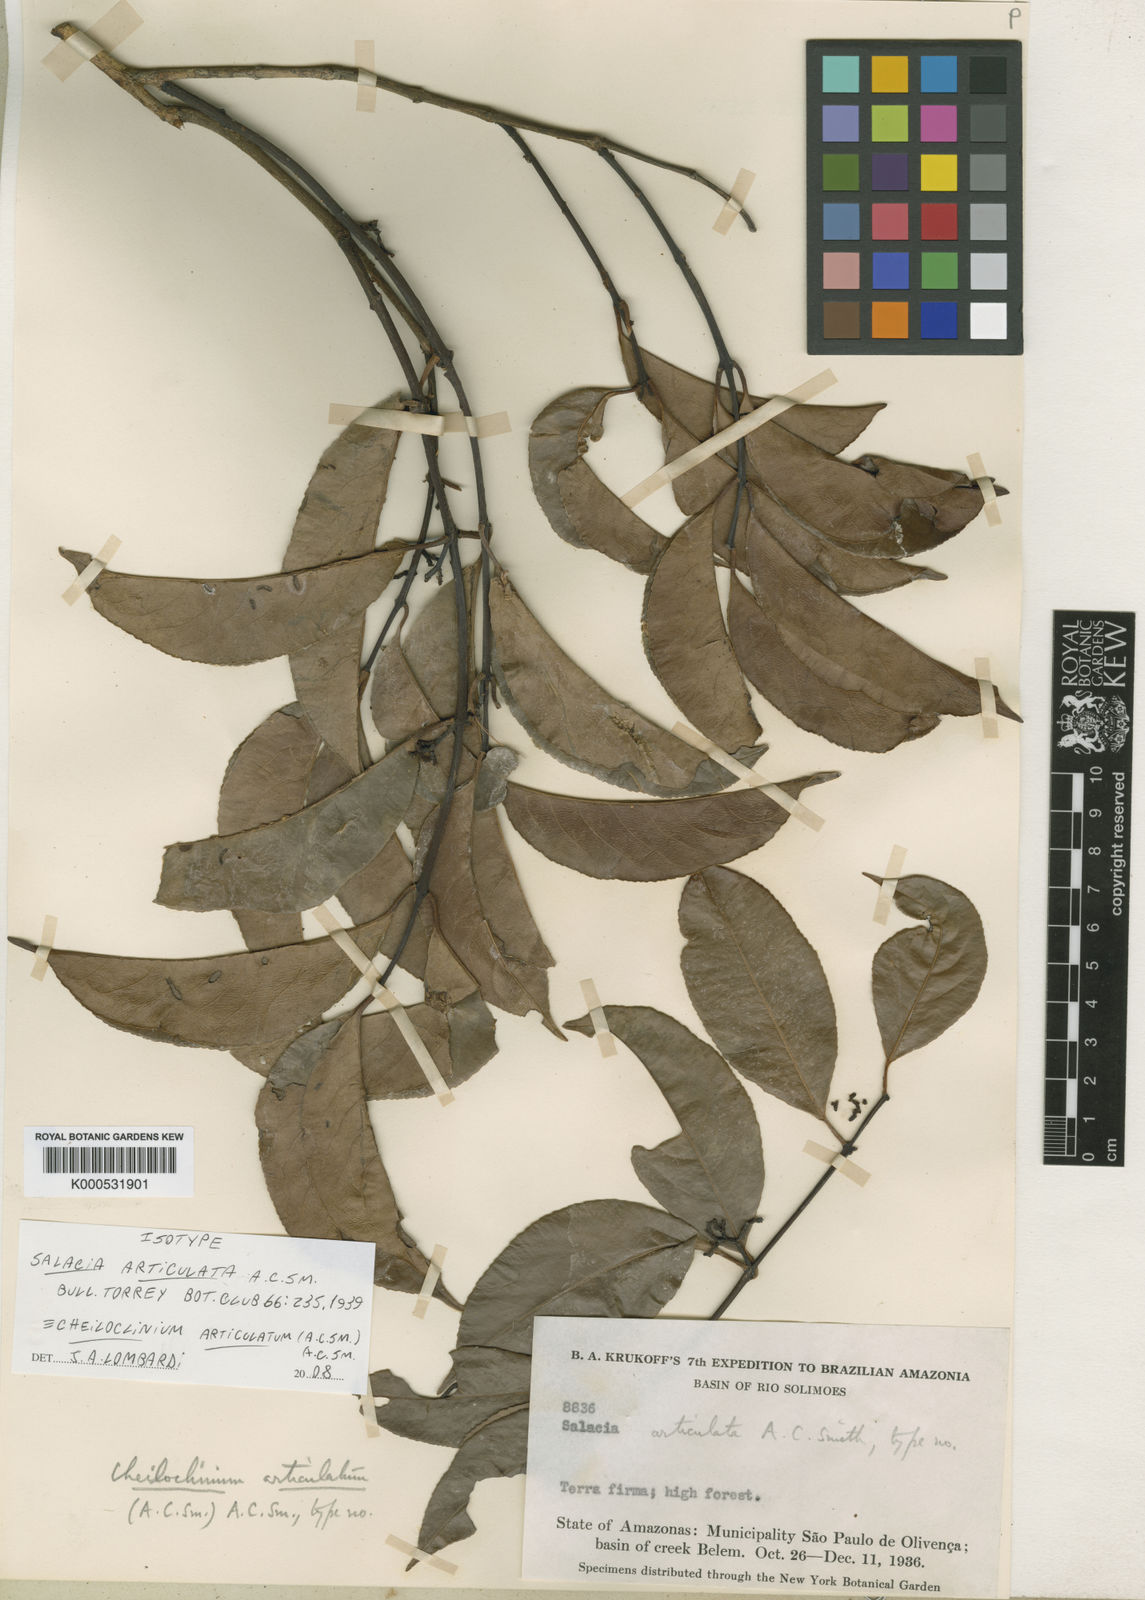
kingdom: Plantae
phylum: Tracheophyta
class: Magnoliopsida
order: Celastrales
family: Celastraceae
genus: Cheiloclinium
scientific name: Cheiloclinium articulatum
